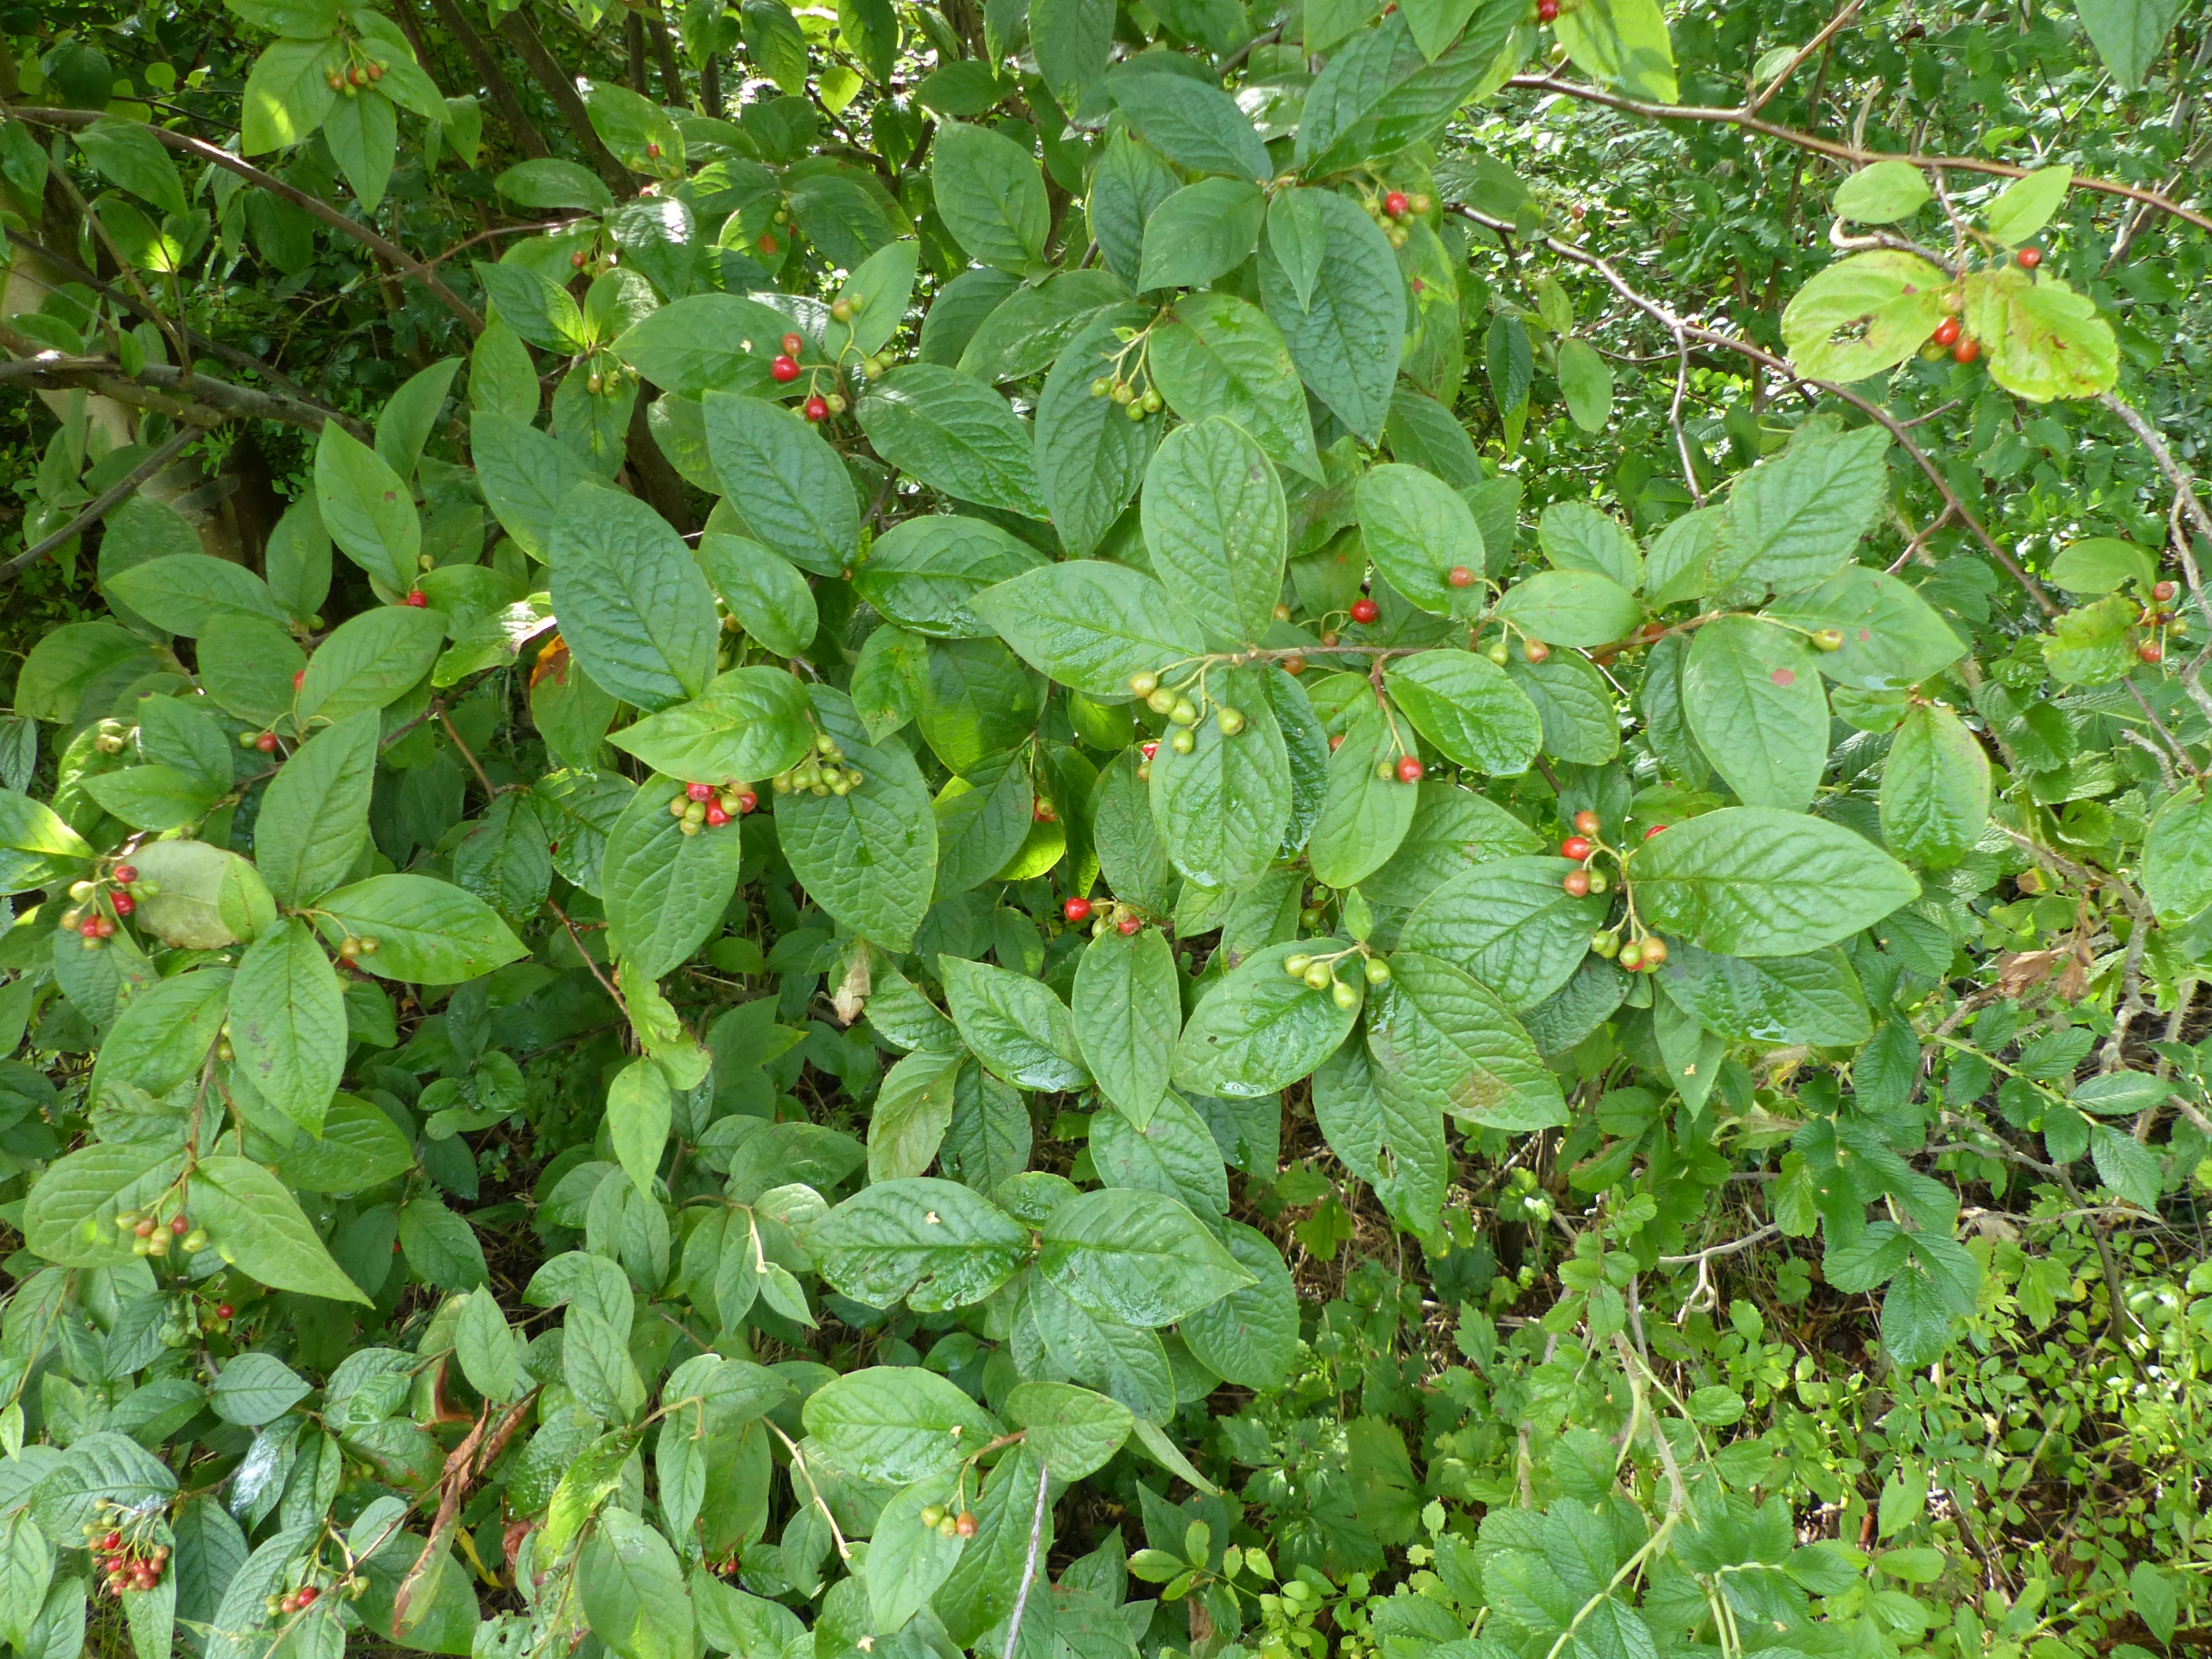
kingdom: Plantae
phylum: Tracheophyta
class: Magnoliopsida
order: Rosales
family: Rosaceae
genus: Cotoneaster
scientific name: Cotoneaster bullatus
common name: Buklet dværgmispel
